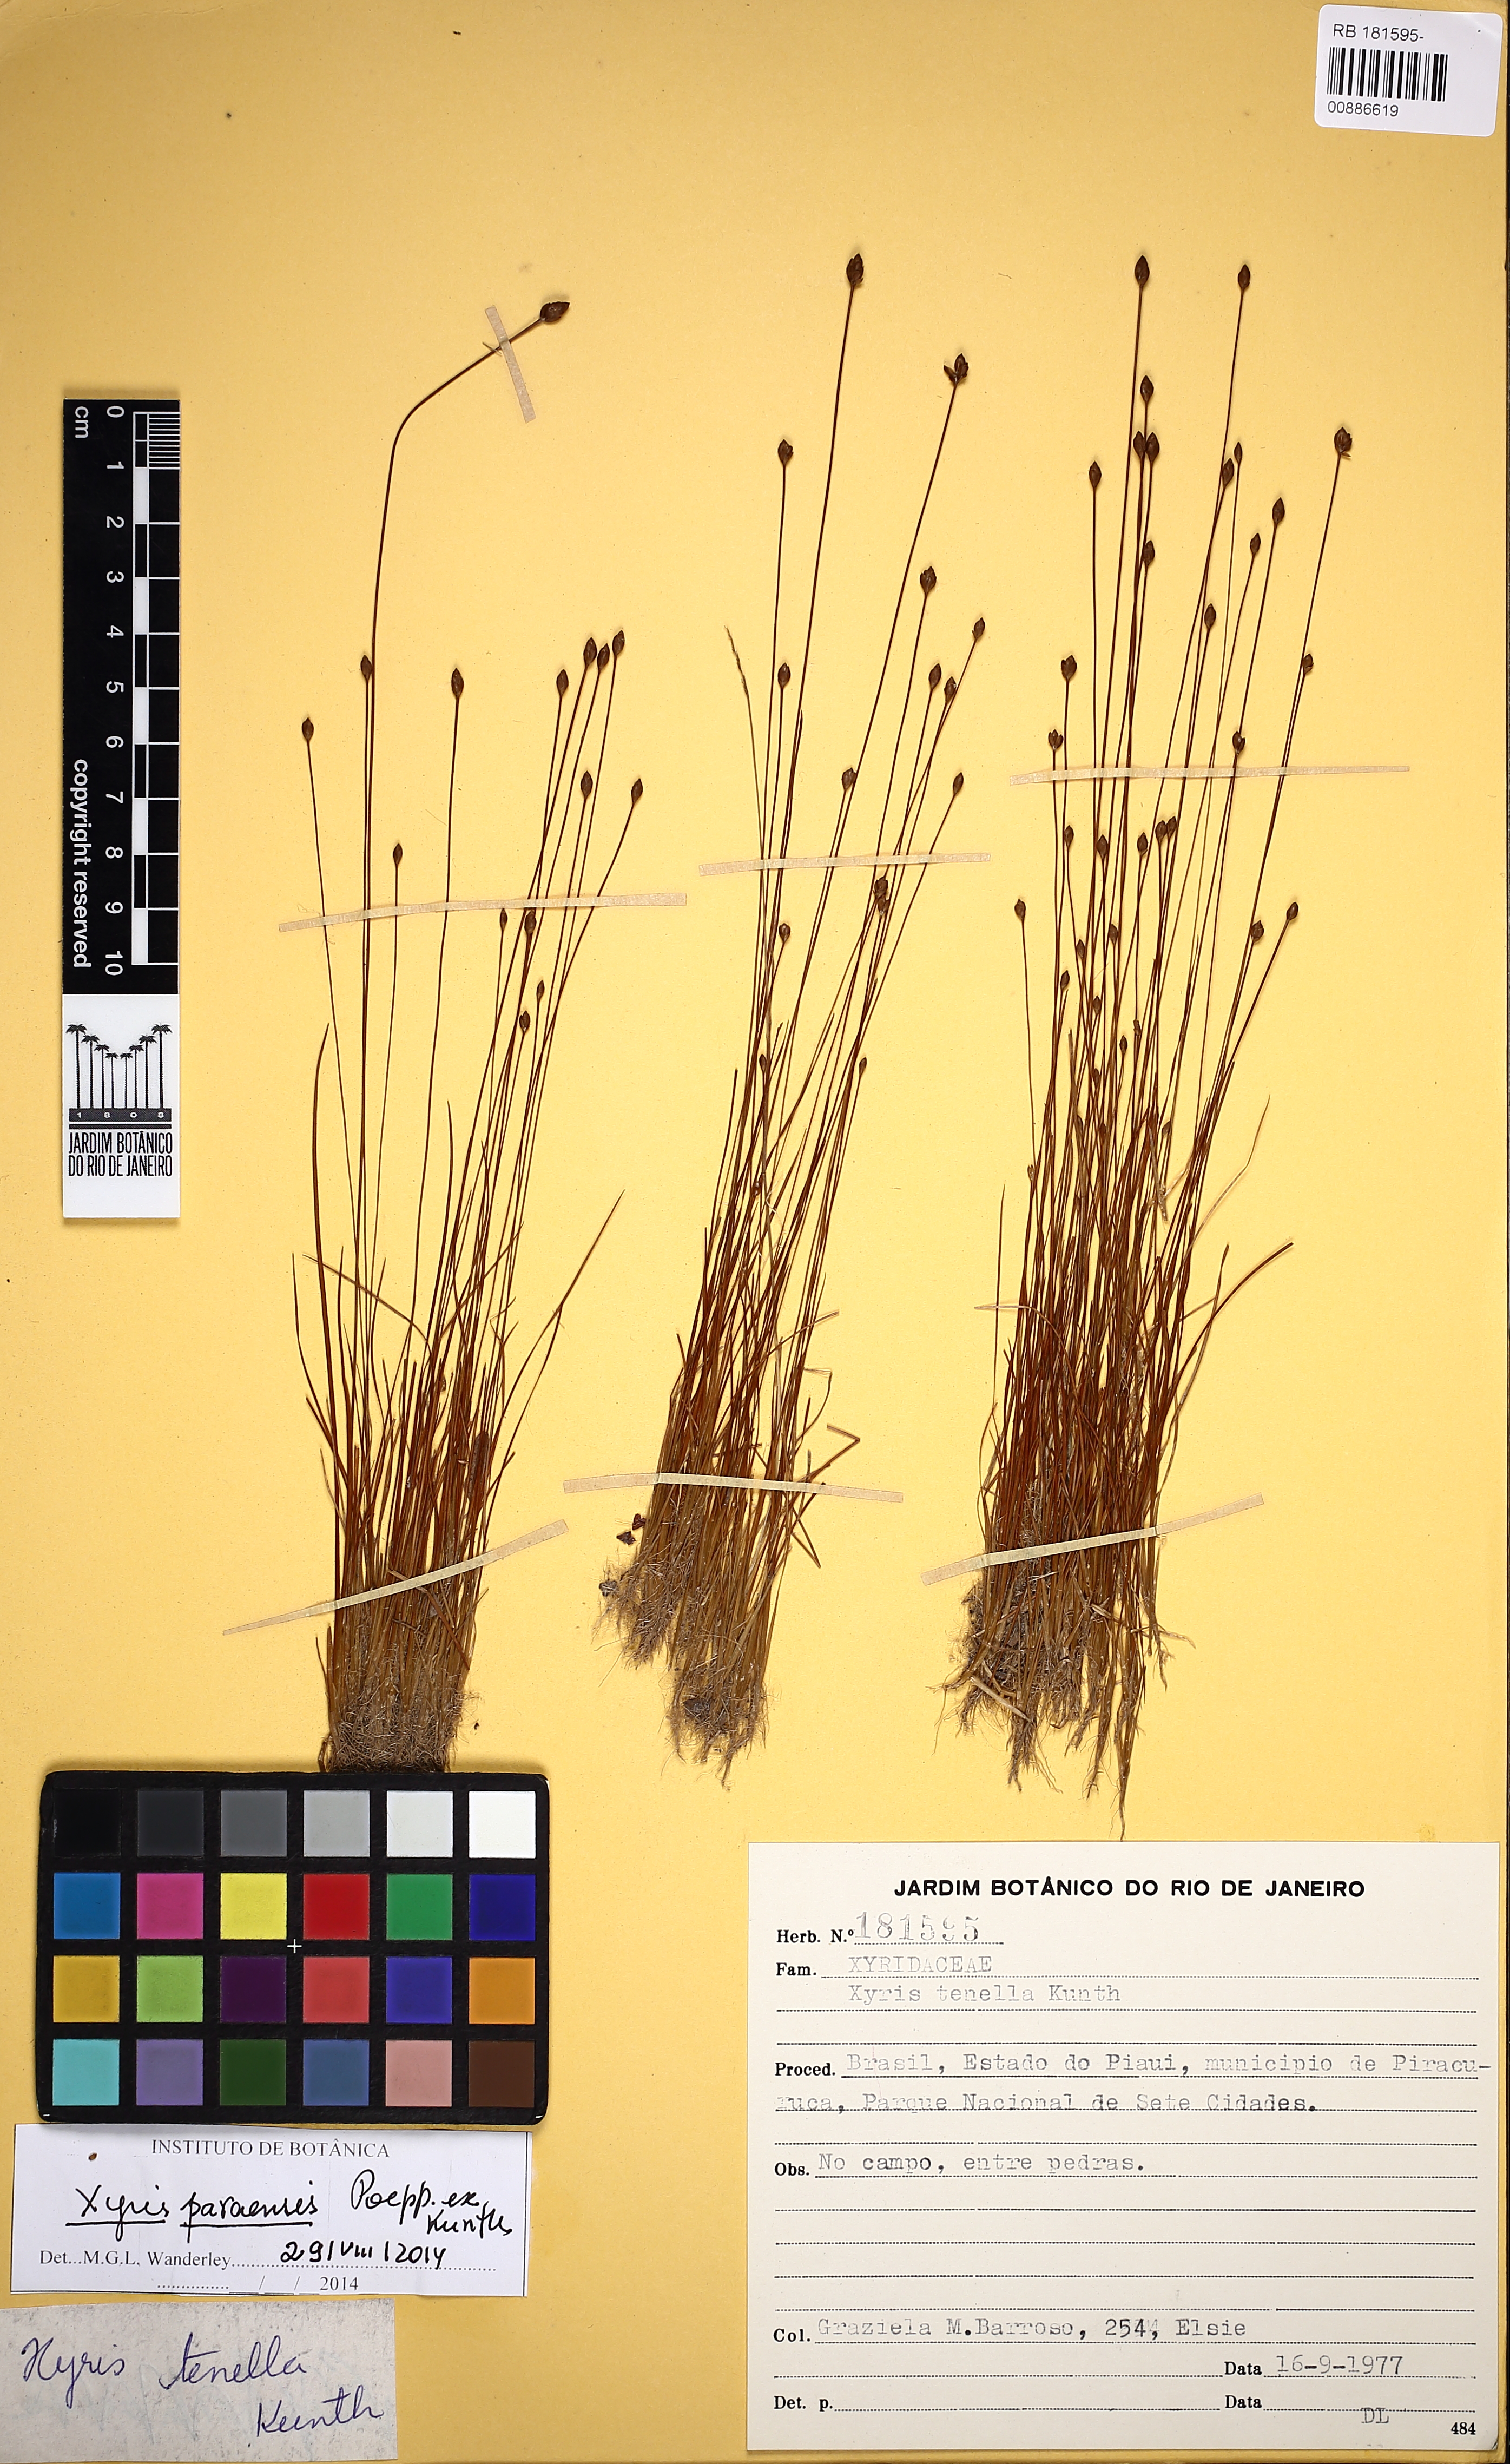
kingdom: Plantae
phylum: Tracheophyta
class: Liliopsida
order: Poales
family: Xyridaceae
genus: Xyris
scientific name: Xyris paraensis
